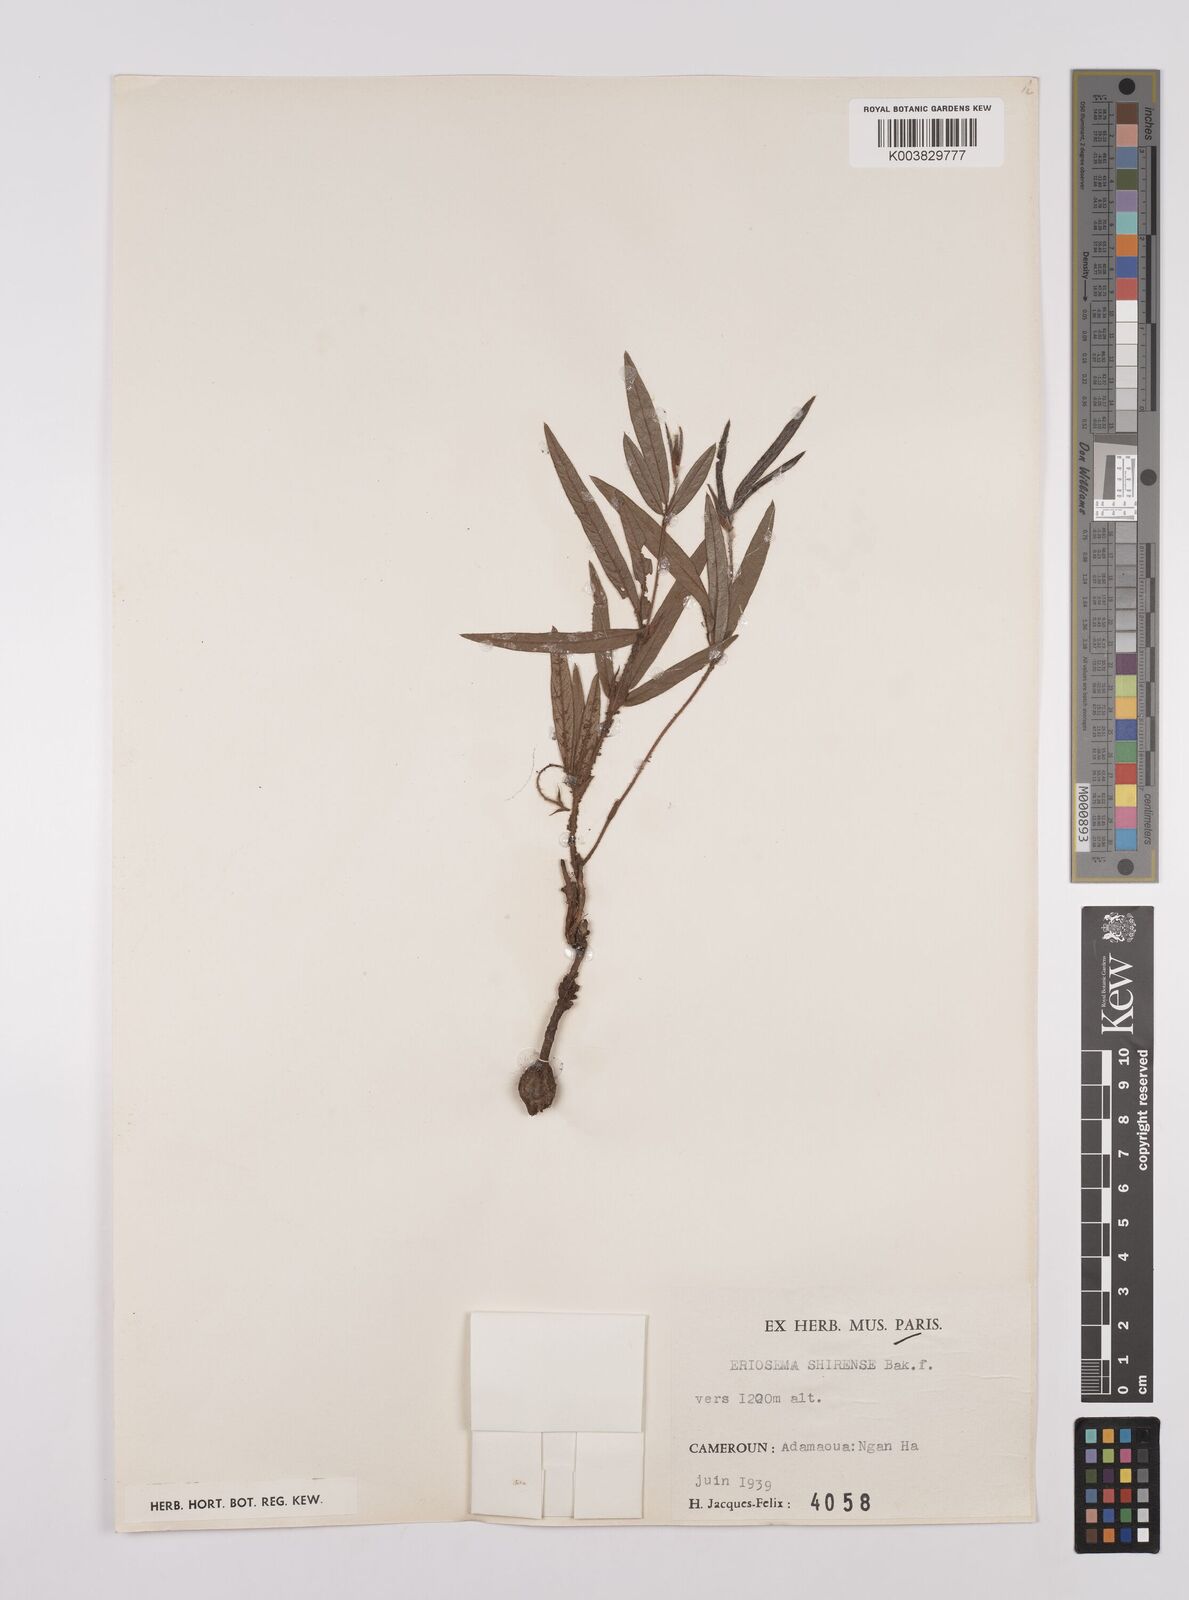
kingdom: Plantae
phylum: Tracheophyta
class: Magnoliopsida
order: Fabales
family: Fabaceae
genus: Eriosema
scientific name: Eriosema shirense
